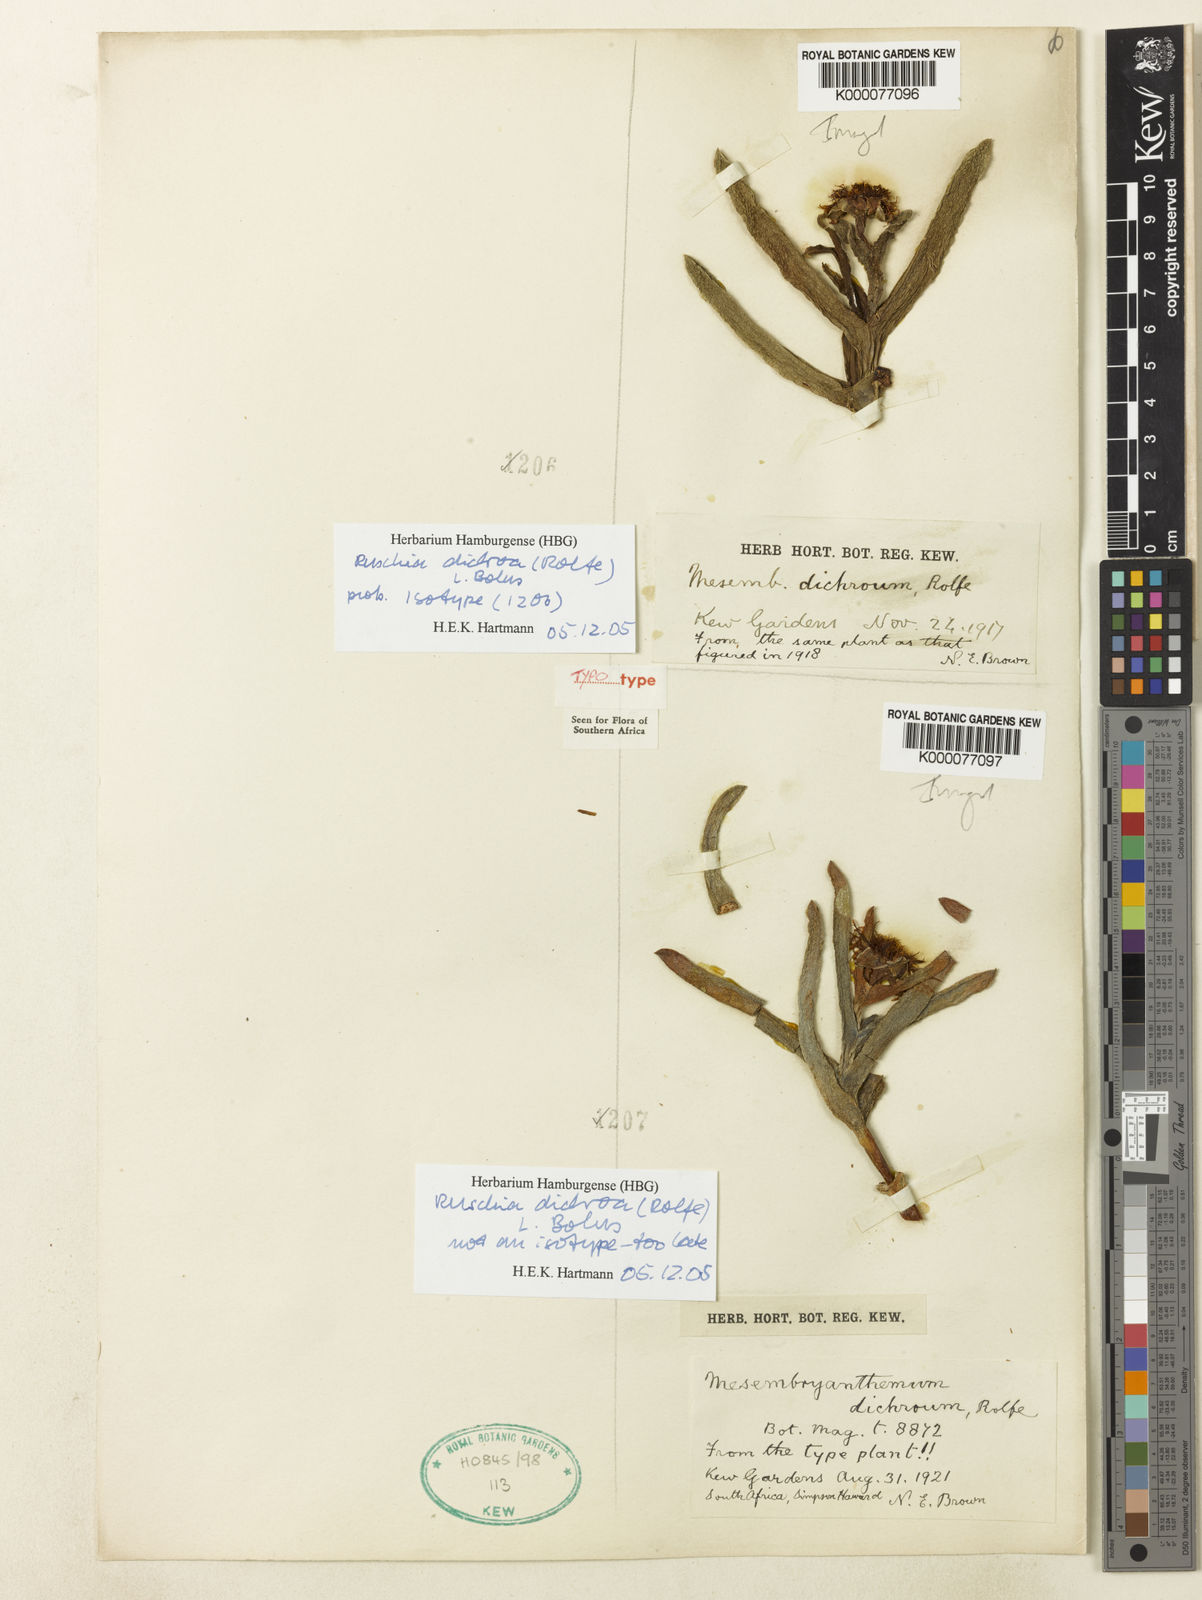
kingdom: Plantae
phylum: Tracheophyta
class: Magnoliopsida
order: Caryophyllales
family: Aizoaceae
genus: Ruschia
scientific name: Ruschia dichroa
